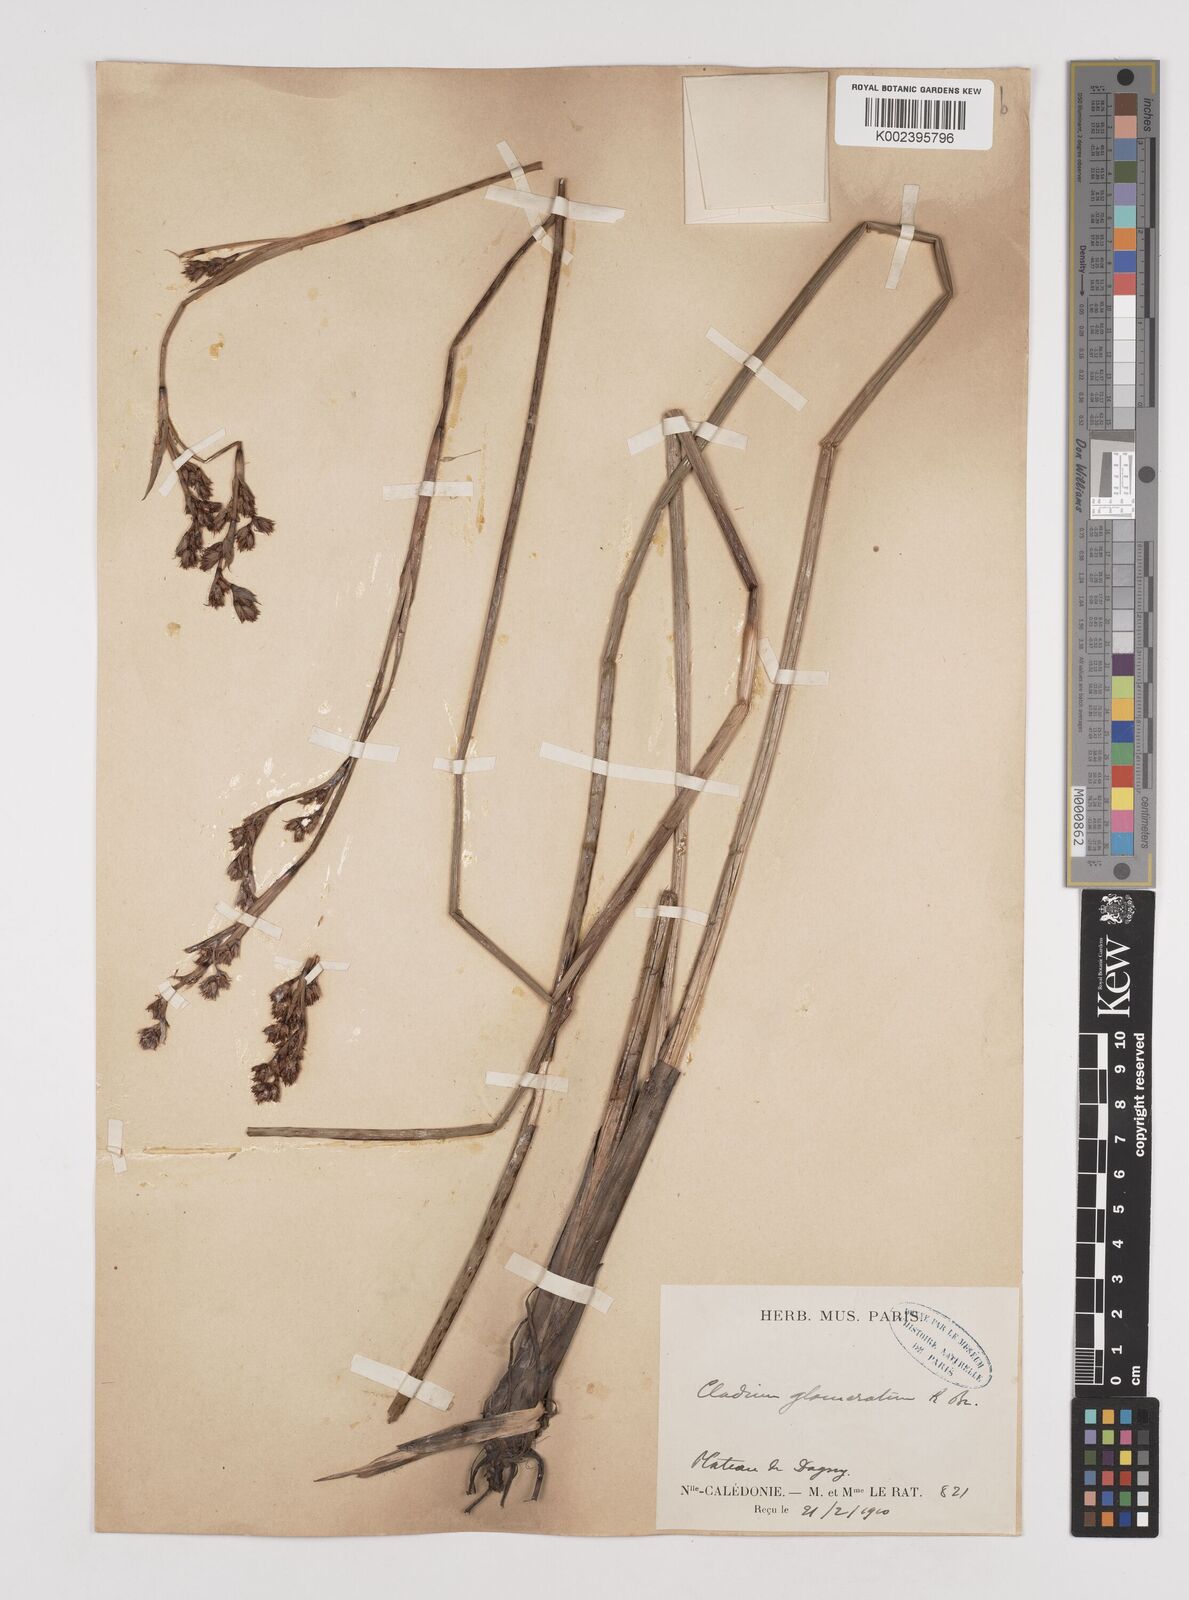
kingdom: Plantae
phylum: Tracheophyta
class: Liliopsida
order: Poales
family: Cyperaceae
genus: Machaerina
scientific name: Machaerina rubiginosa
